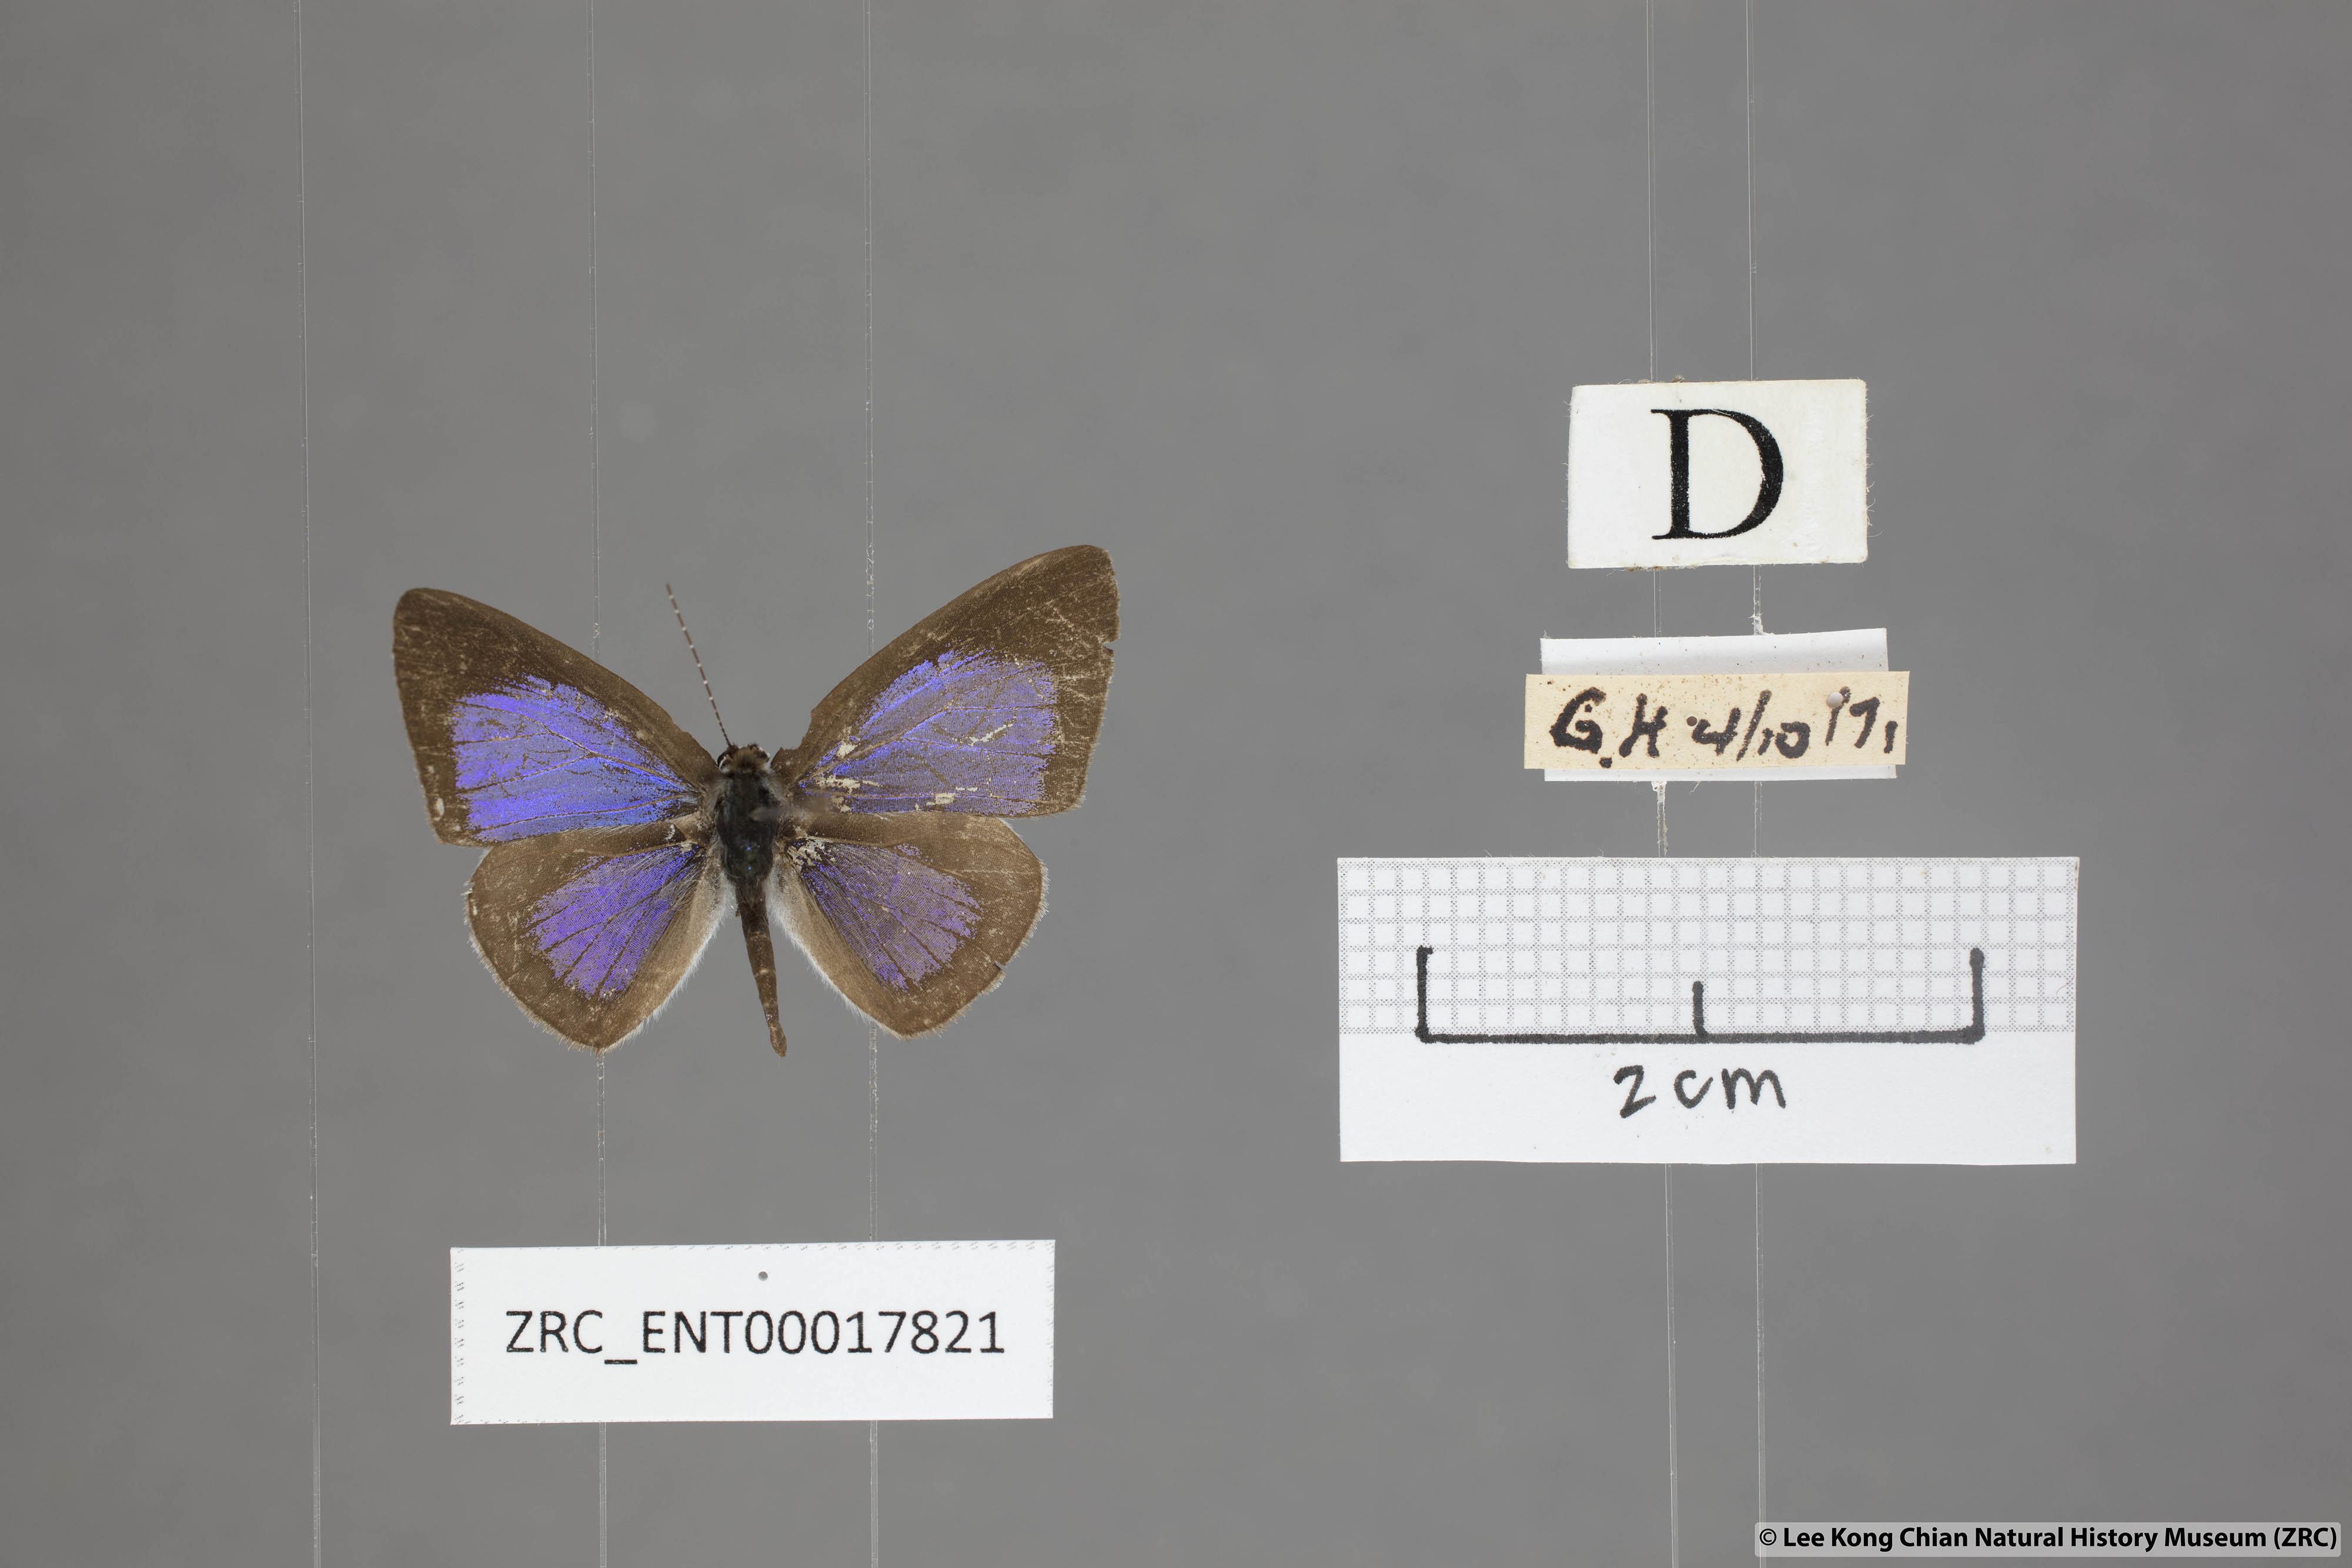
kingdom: Animalia
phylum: Arthropoda
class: Insecta
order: Lepidoptera
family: Lycaenidae
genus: Cebrella
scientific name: Cebrella
